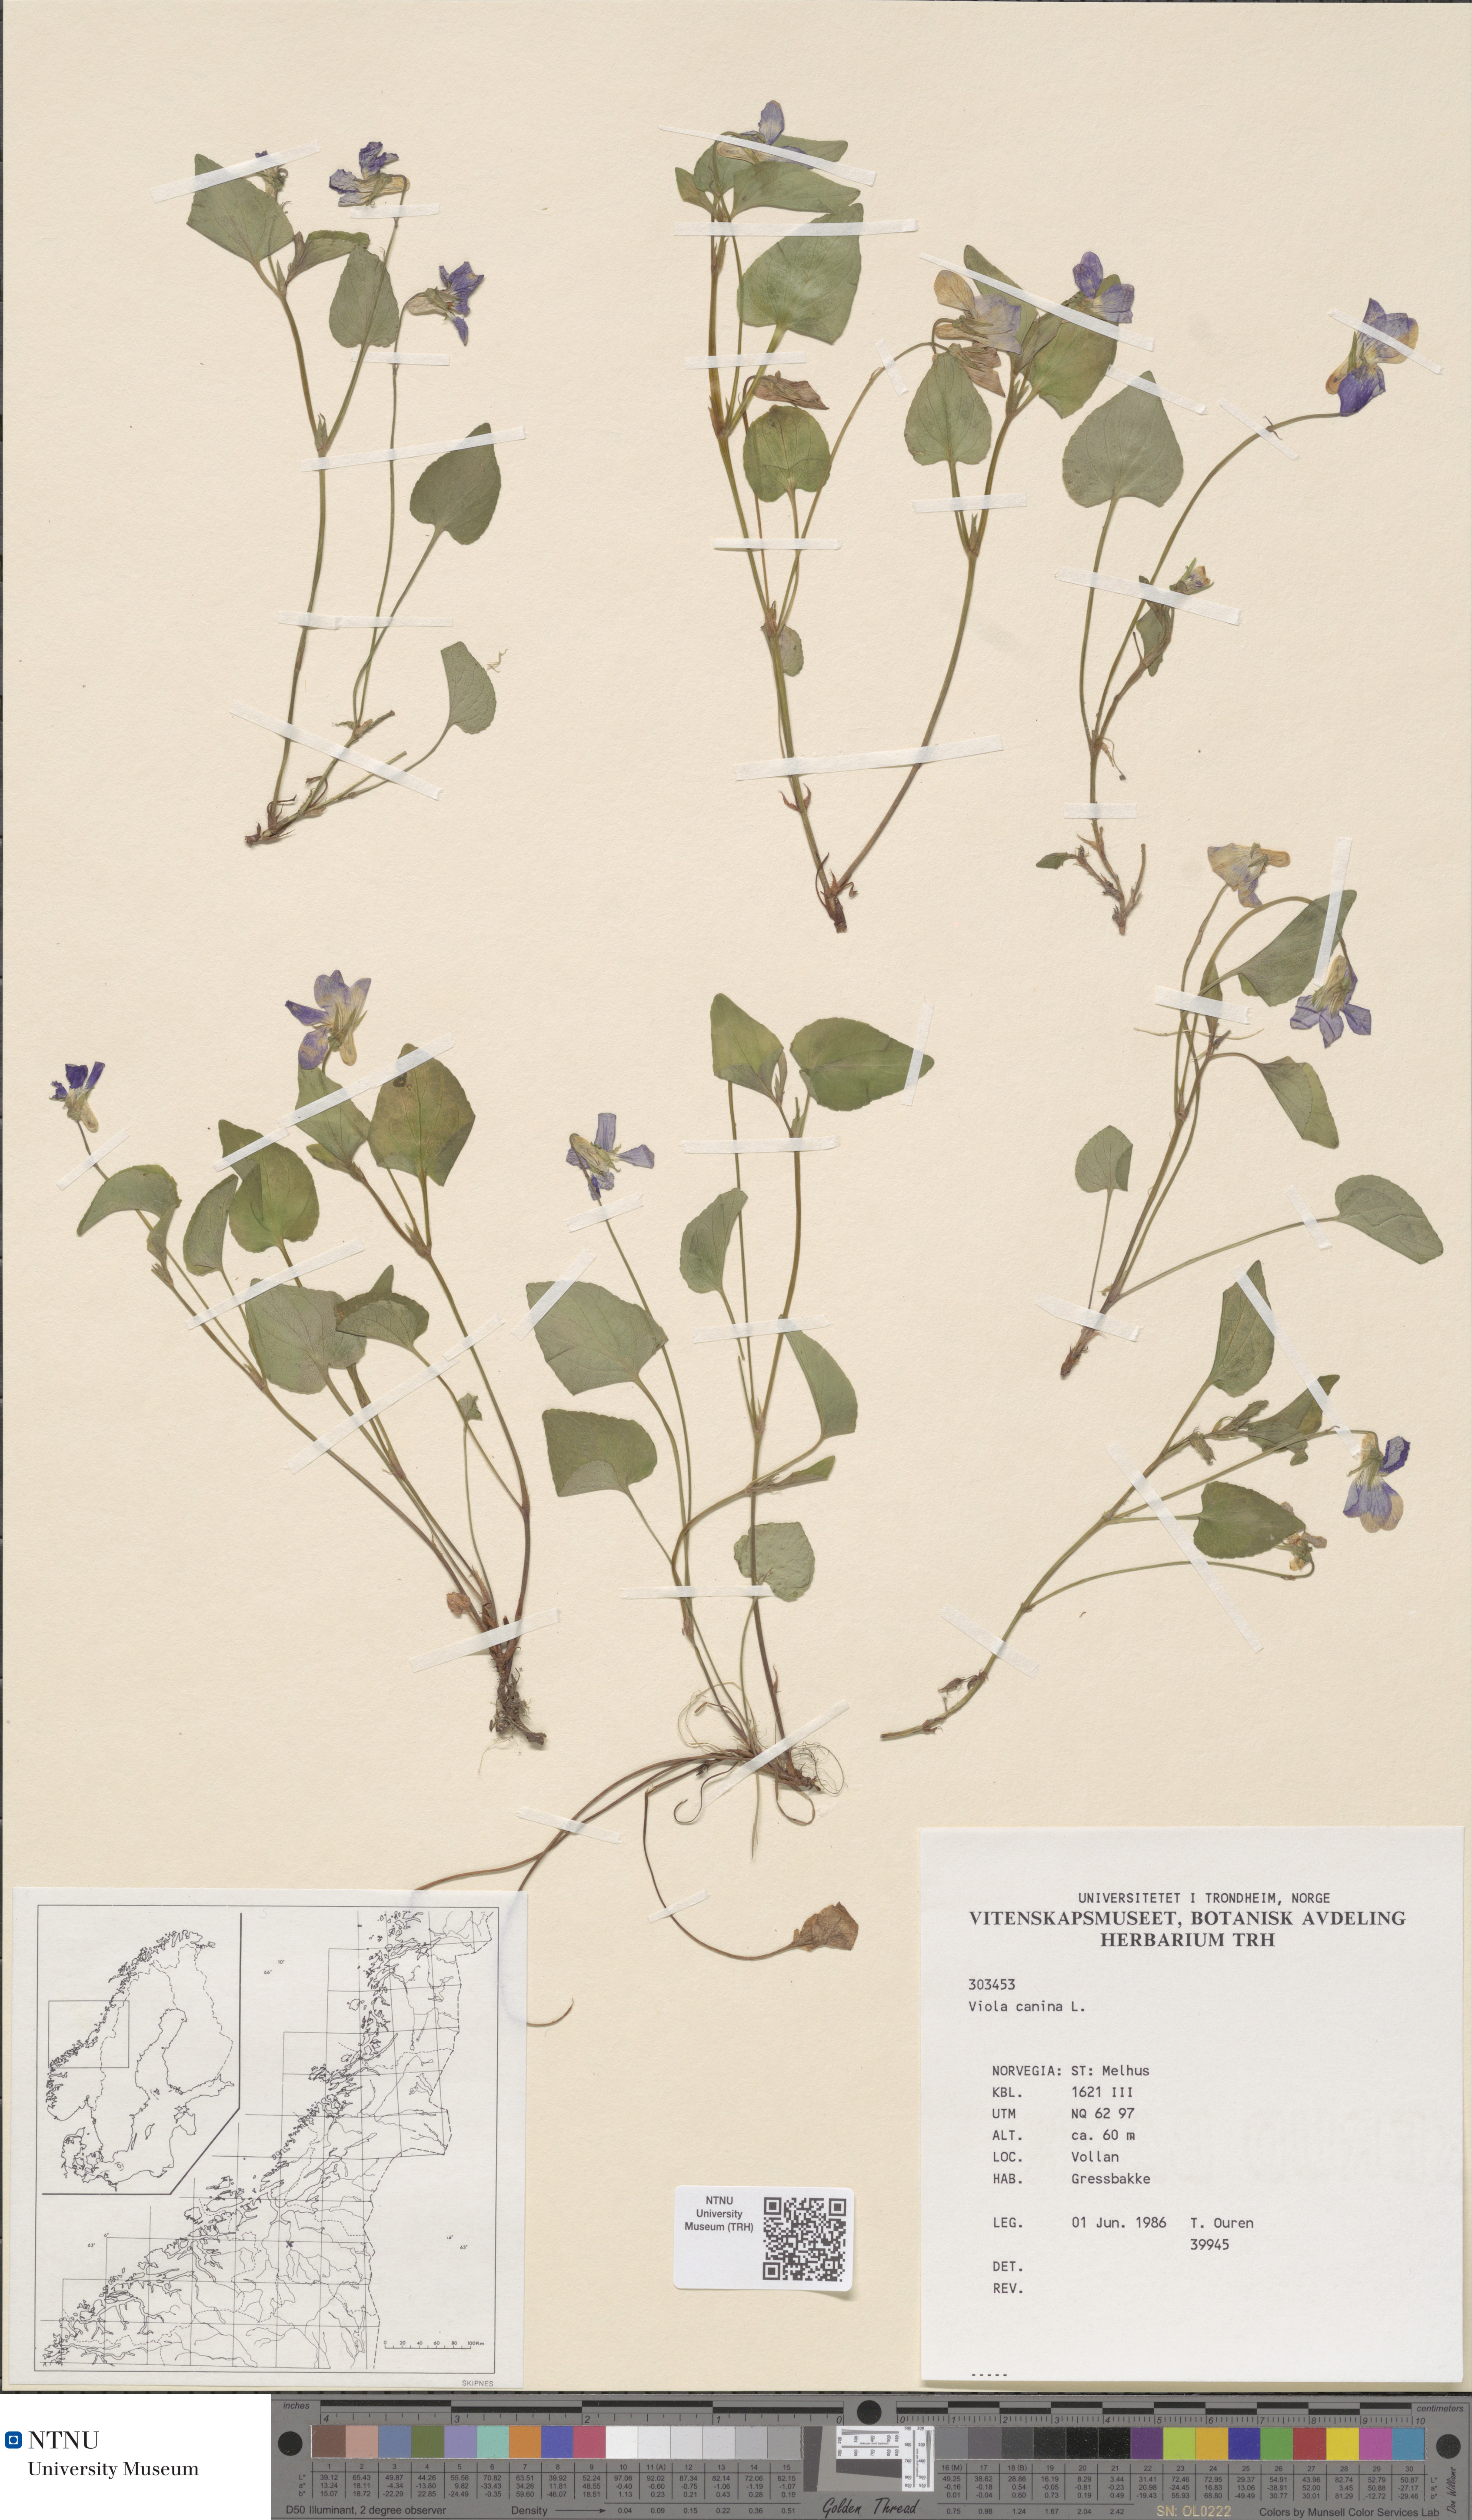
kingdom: Plantae
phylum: Tracheophyta
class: Magnoliopsida
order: Malpighiales
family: Violaceae
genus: Viola
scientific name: Viola canina
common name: Heath dog-violet
